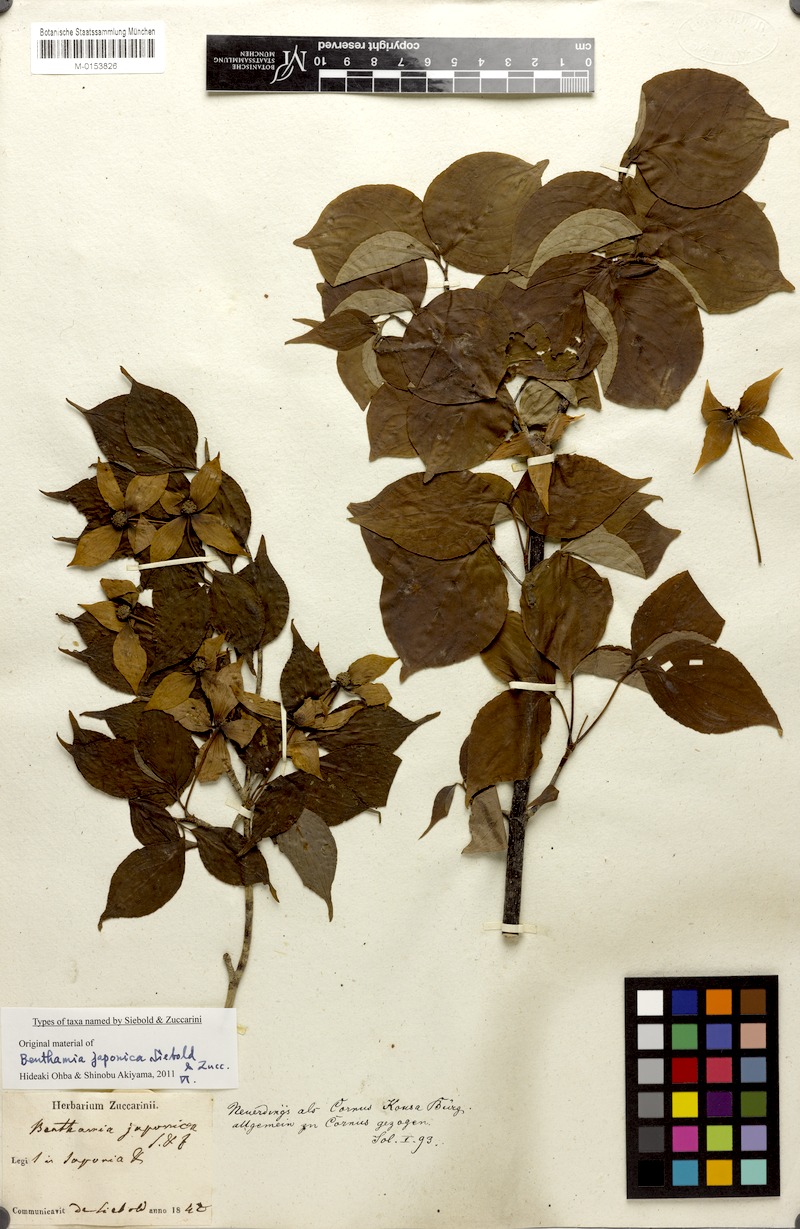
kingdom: Plantae
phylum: Tracheophyta
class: Magnoliopsida
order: Cornales
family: Cornaceae
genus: Cornus
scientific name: Cornus kousa
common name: Japanese dogwood
